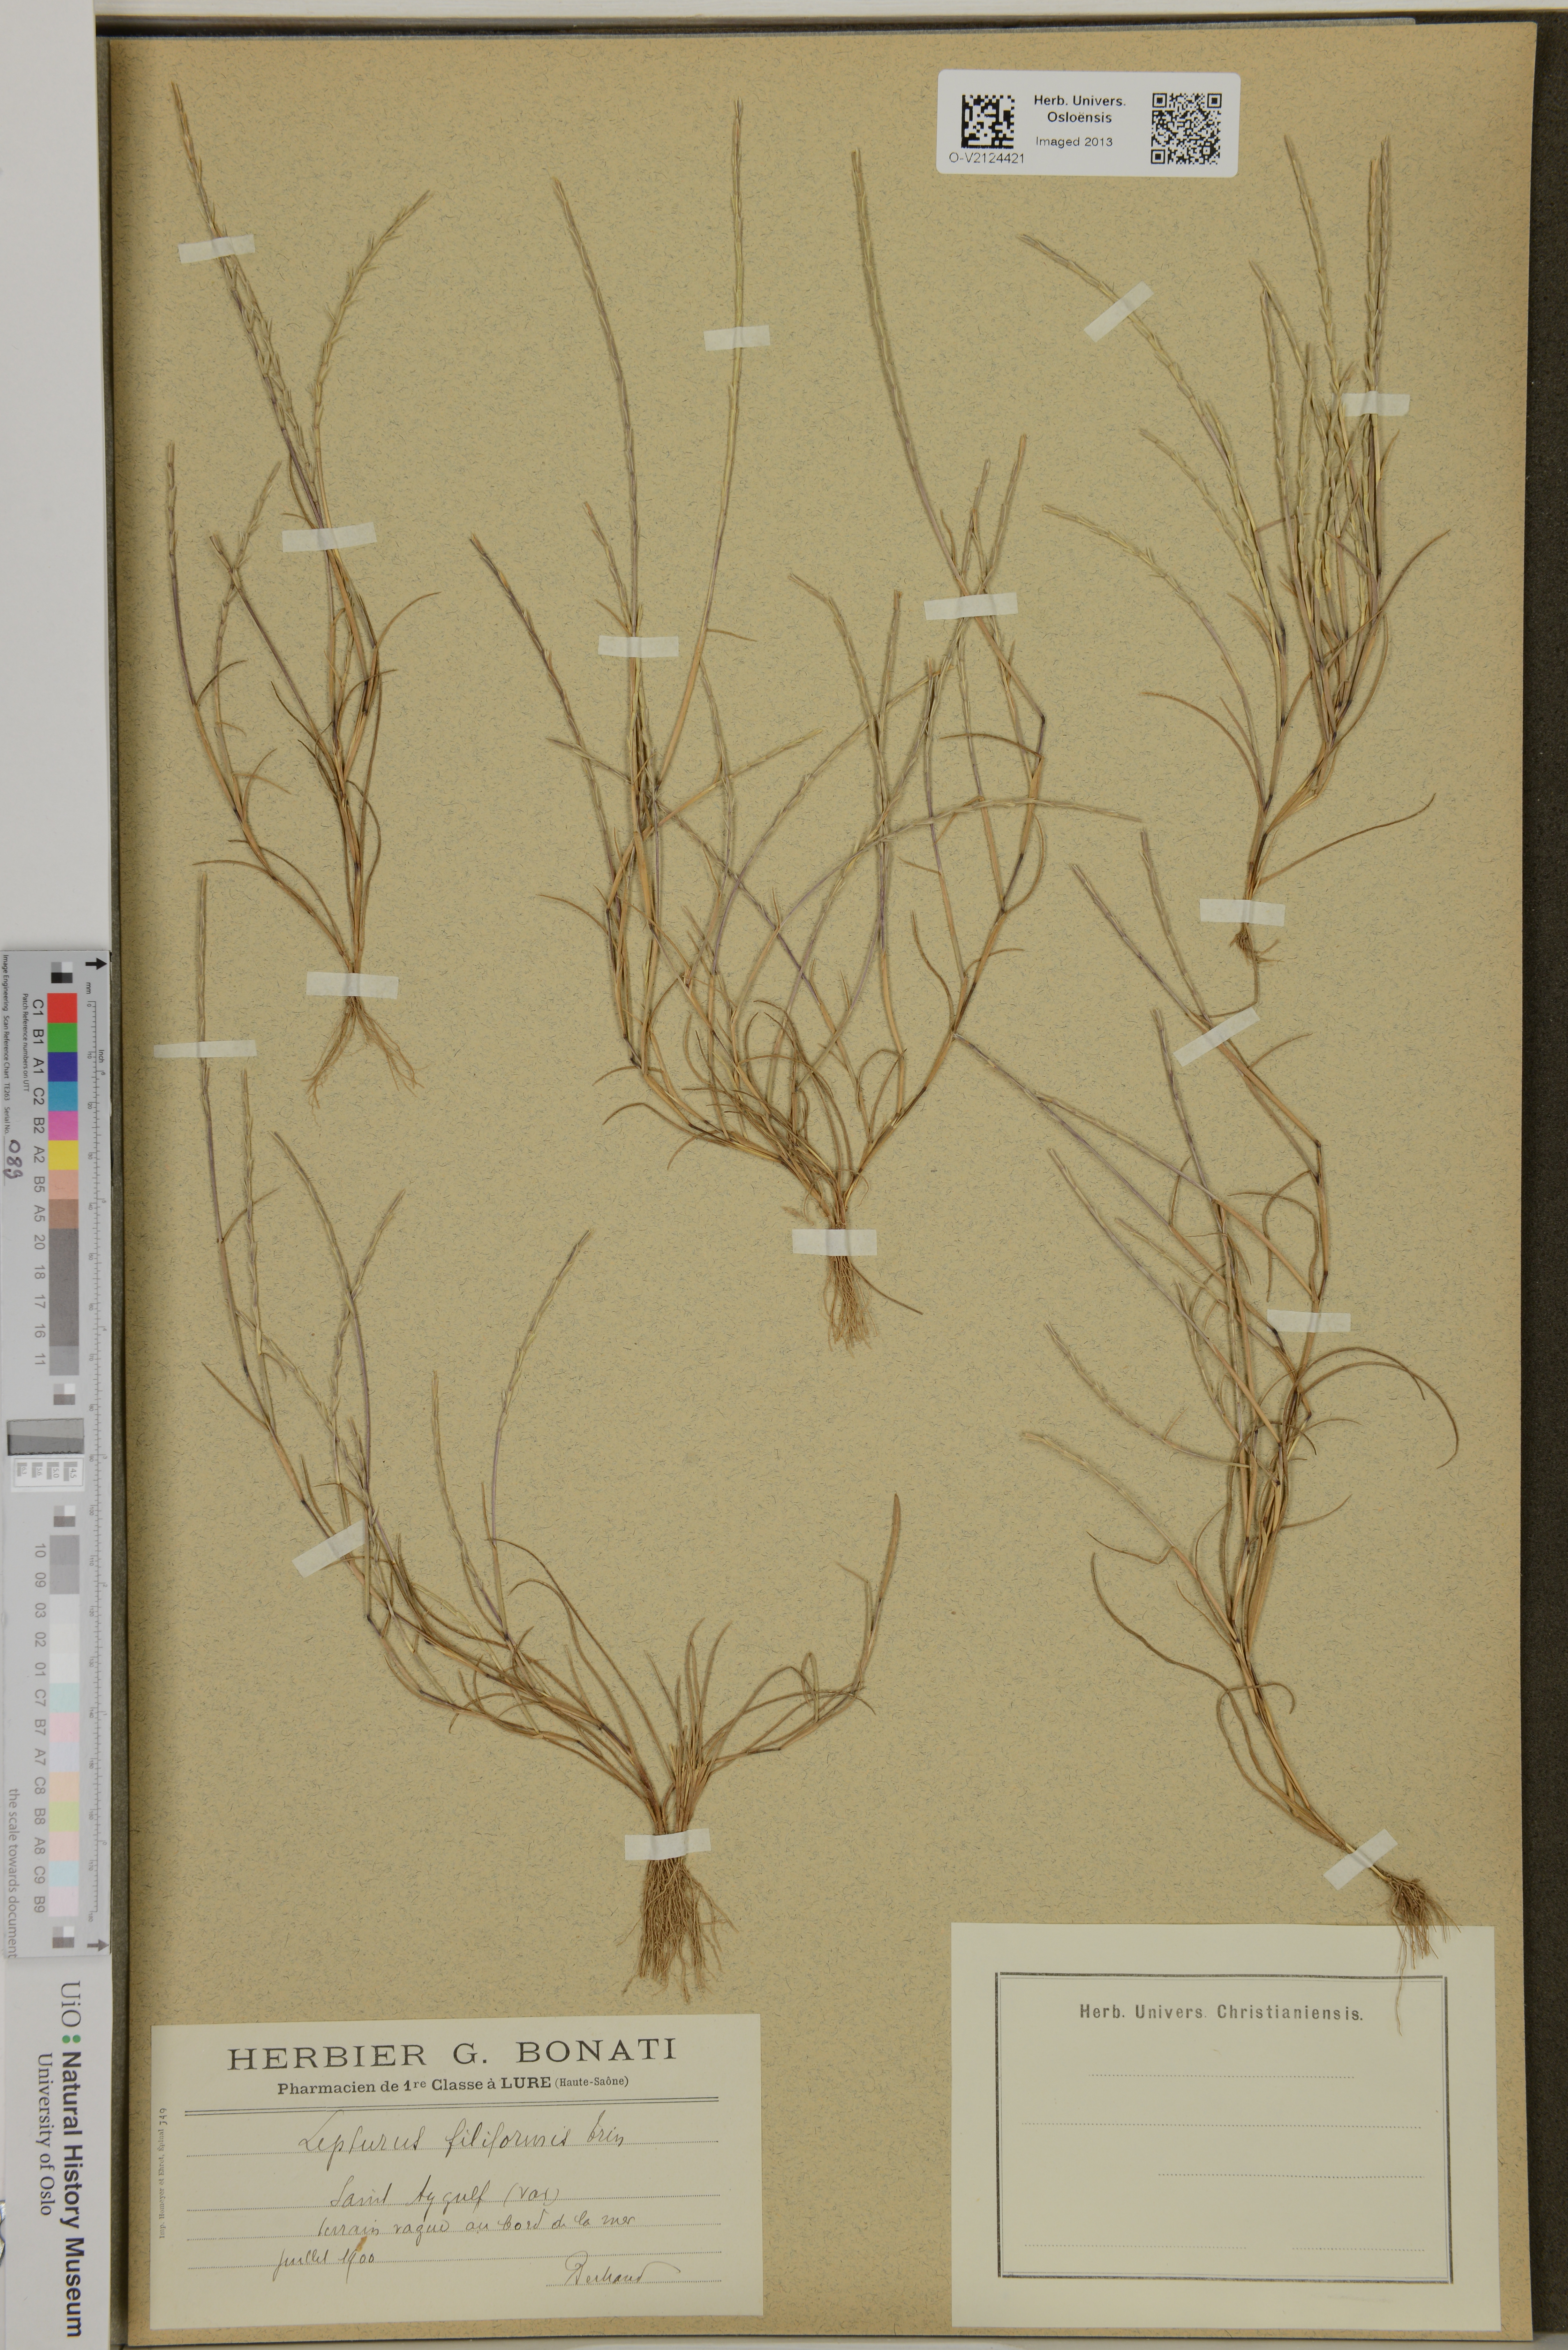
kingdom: Plantae
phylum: Tracheophyta
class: Liliopsida
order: Poales
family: Poaceae
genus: Parapholis
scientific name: Parapholis filiformis
